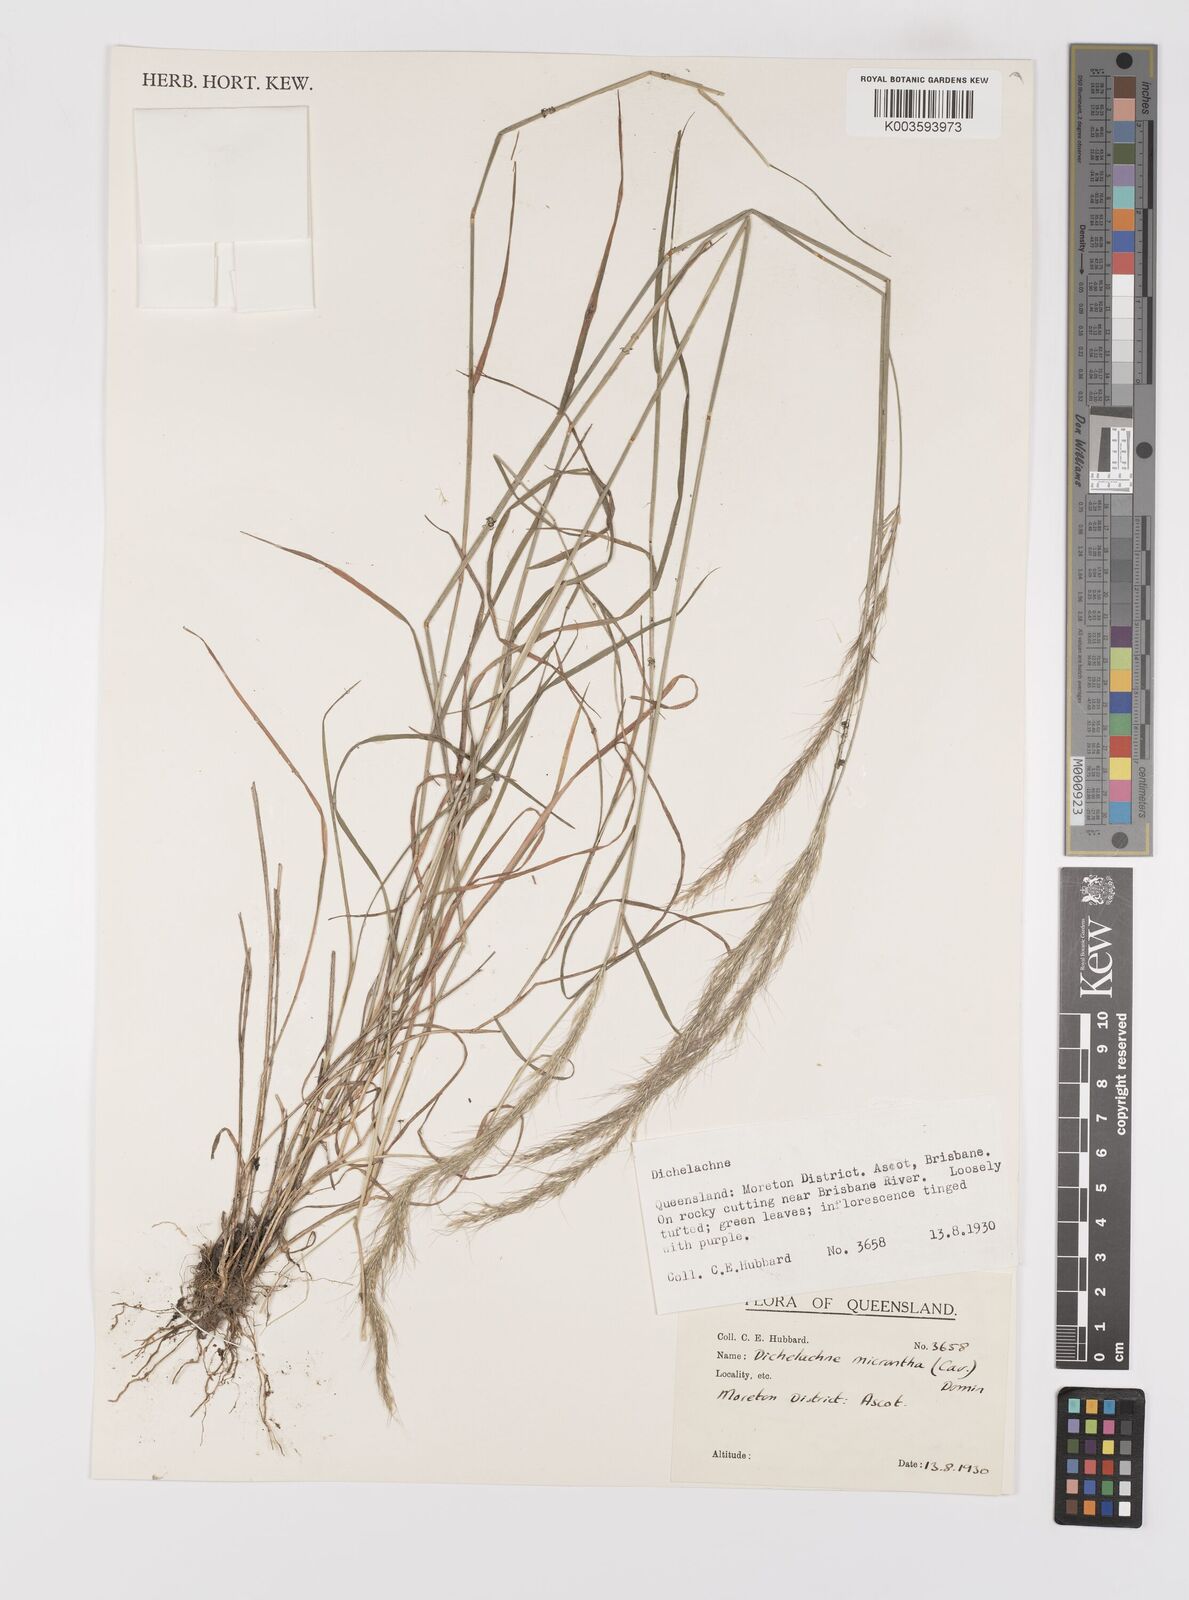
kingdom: Plantae
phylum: Tracheophyta
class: Liliopsida
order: Poales
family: Poaceae
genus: Dichelachne
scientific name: Dichelachne micrantha
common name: Plumegrass
